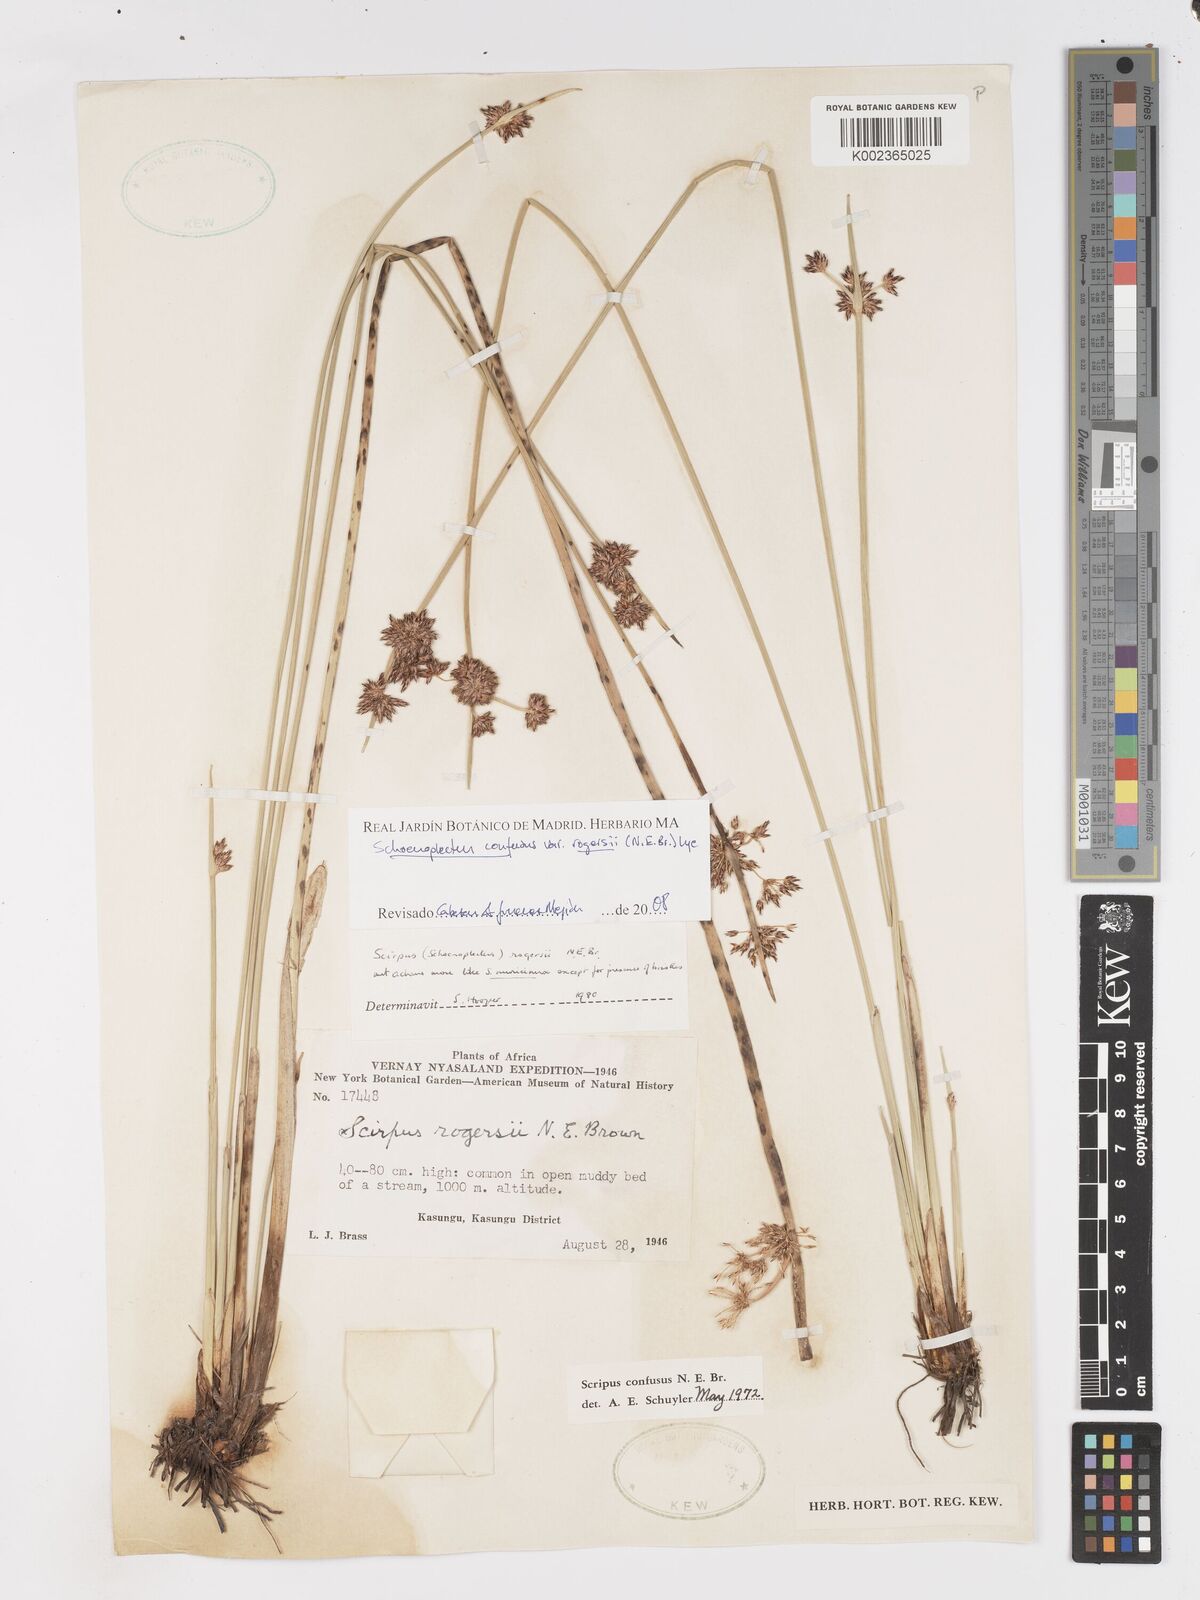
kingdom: Plantae
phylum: Tracheophyta
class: Liliopsida
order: Poales
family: Cyperaceae
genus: Schoenoplectiella
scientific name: Schoenoplectiella rogersii
